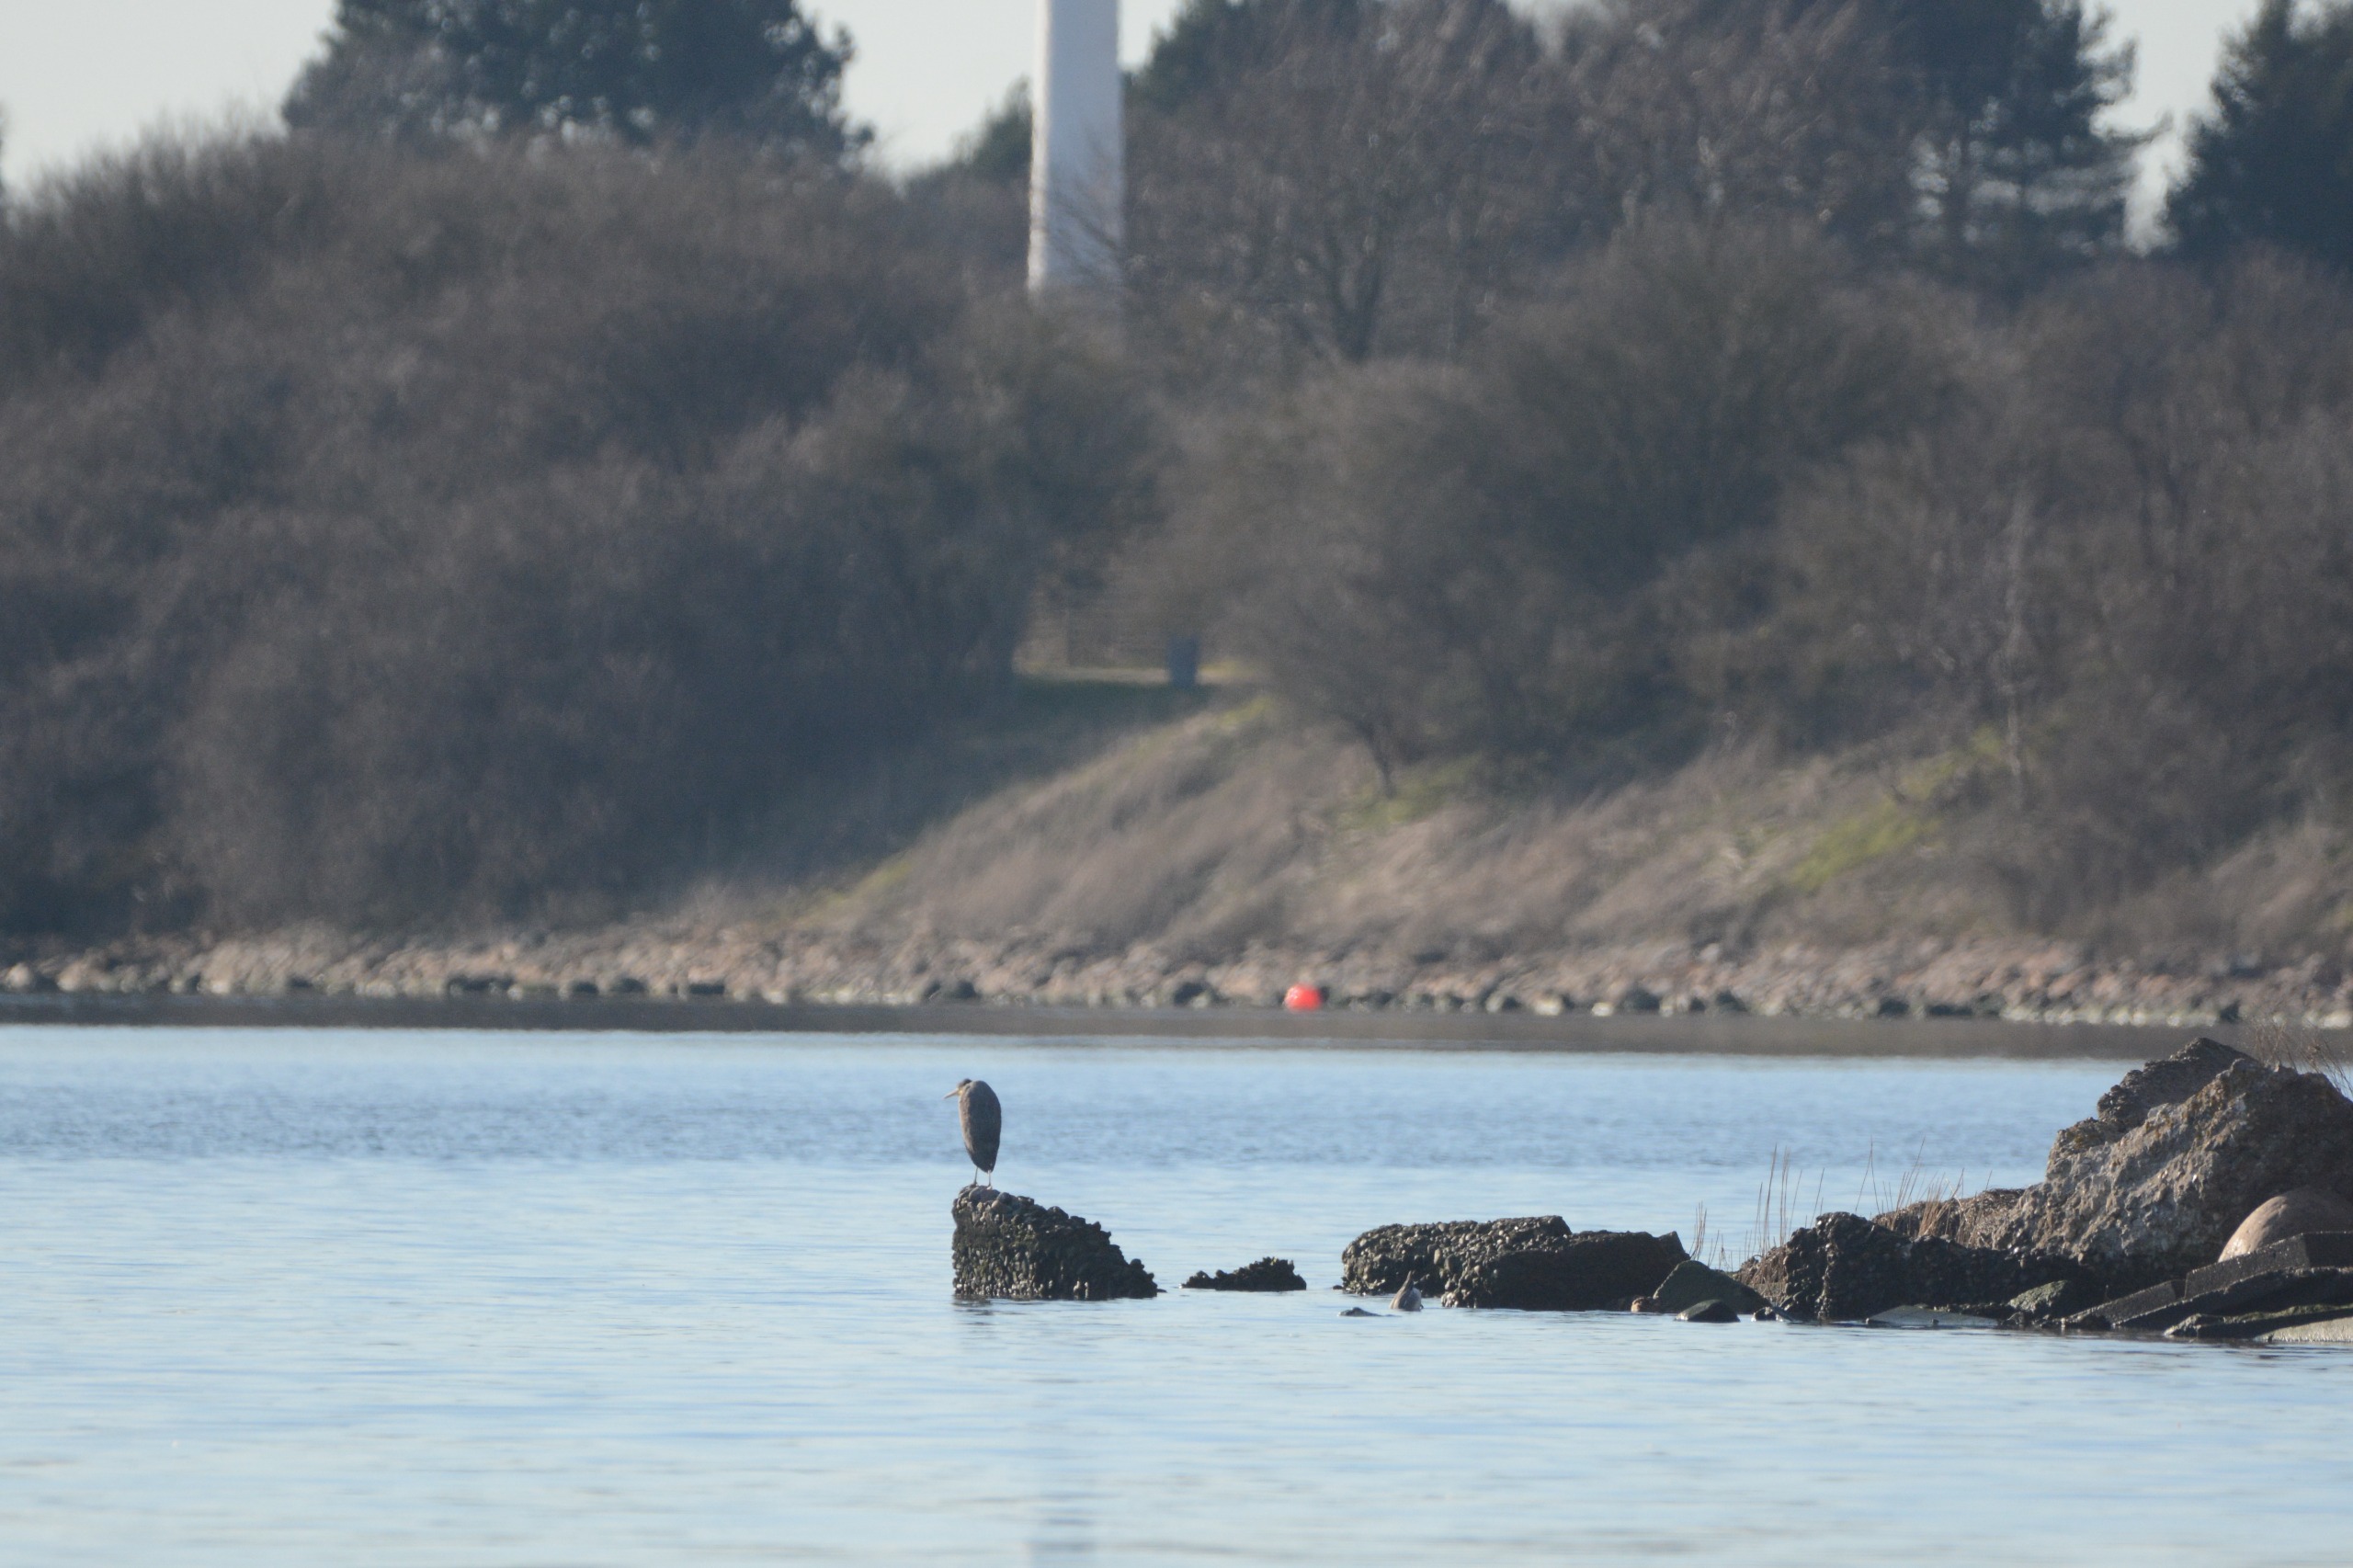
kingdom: Animalia
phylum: Chordata
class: Aves
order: Pelecaniformes
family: Ardeidae
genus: Ardea
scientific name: Ardea cinerea
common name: Fiskehejre
